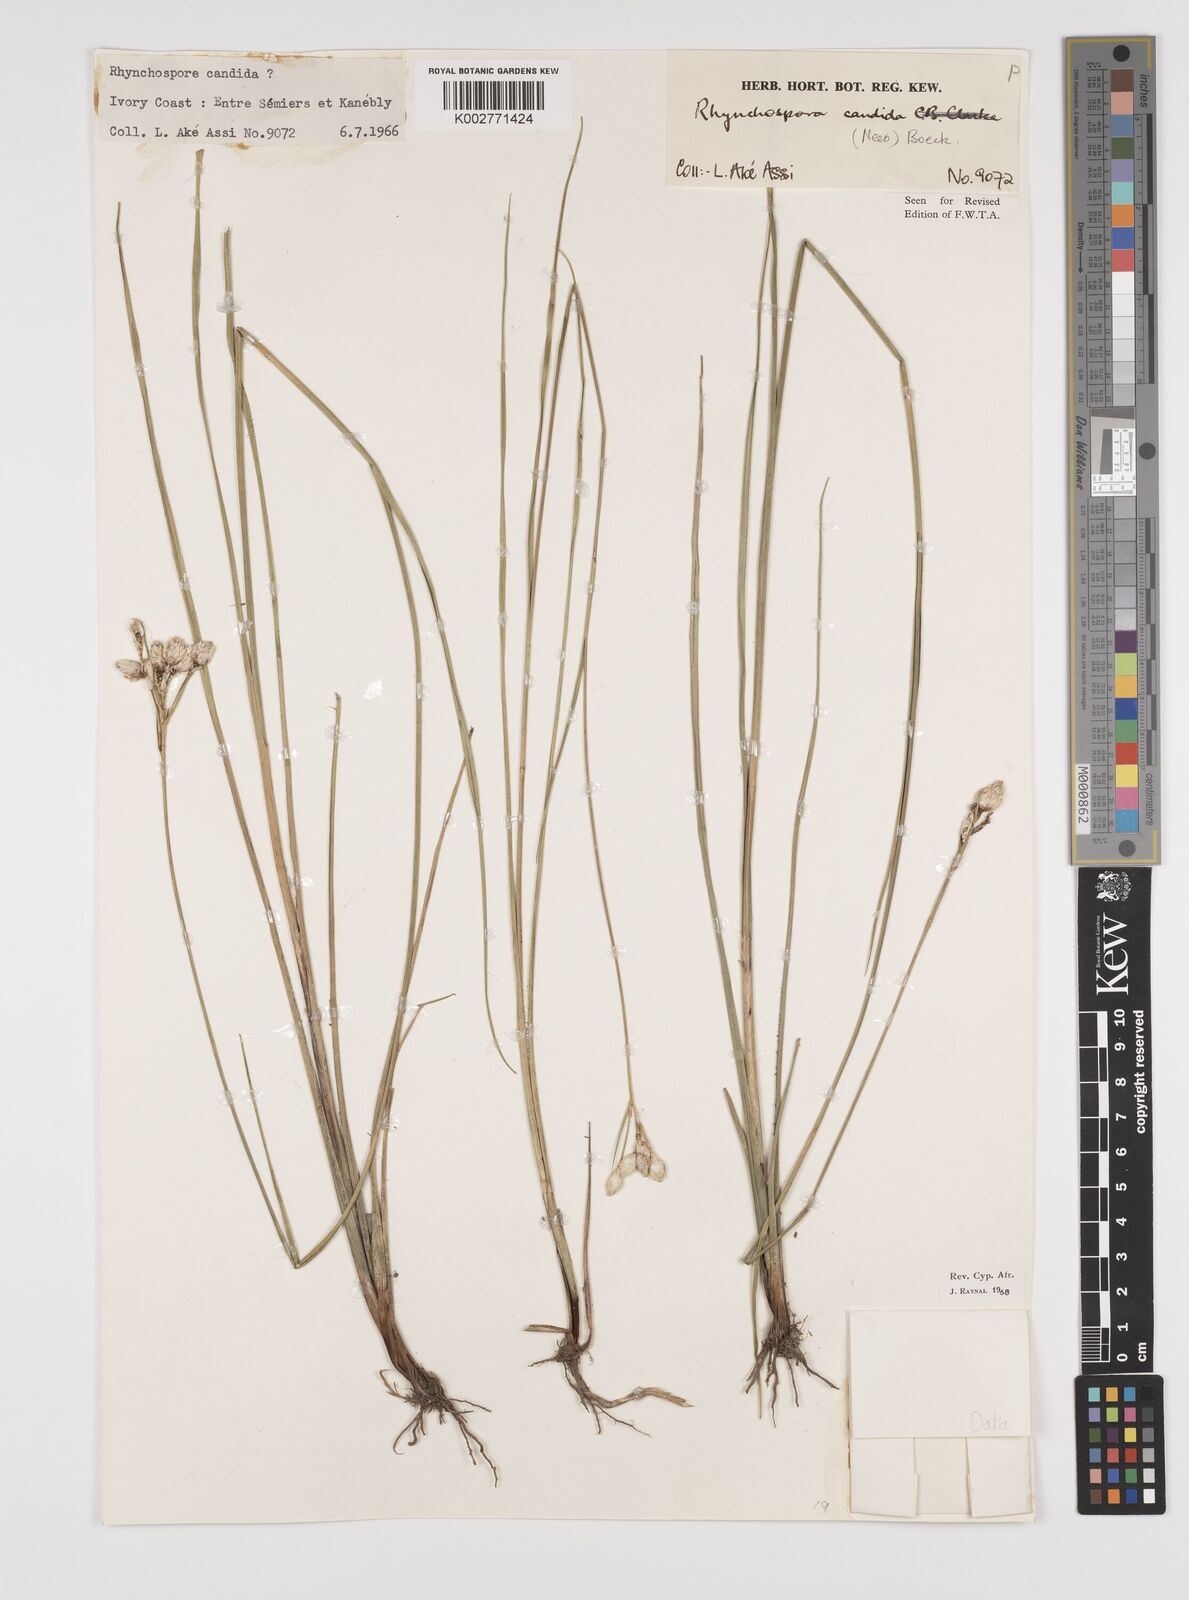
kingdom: Plantae
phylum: Tracheophyta
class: Liliopsida
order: Poales
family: Cyperaceae
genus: Rhynchospora
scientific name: Rhynchospora candida
